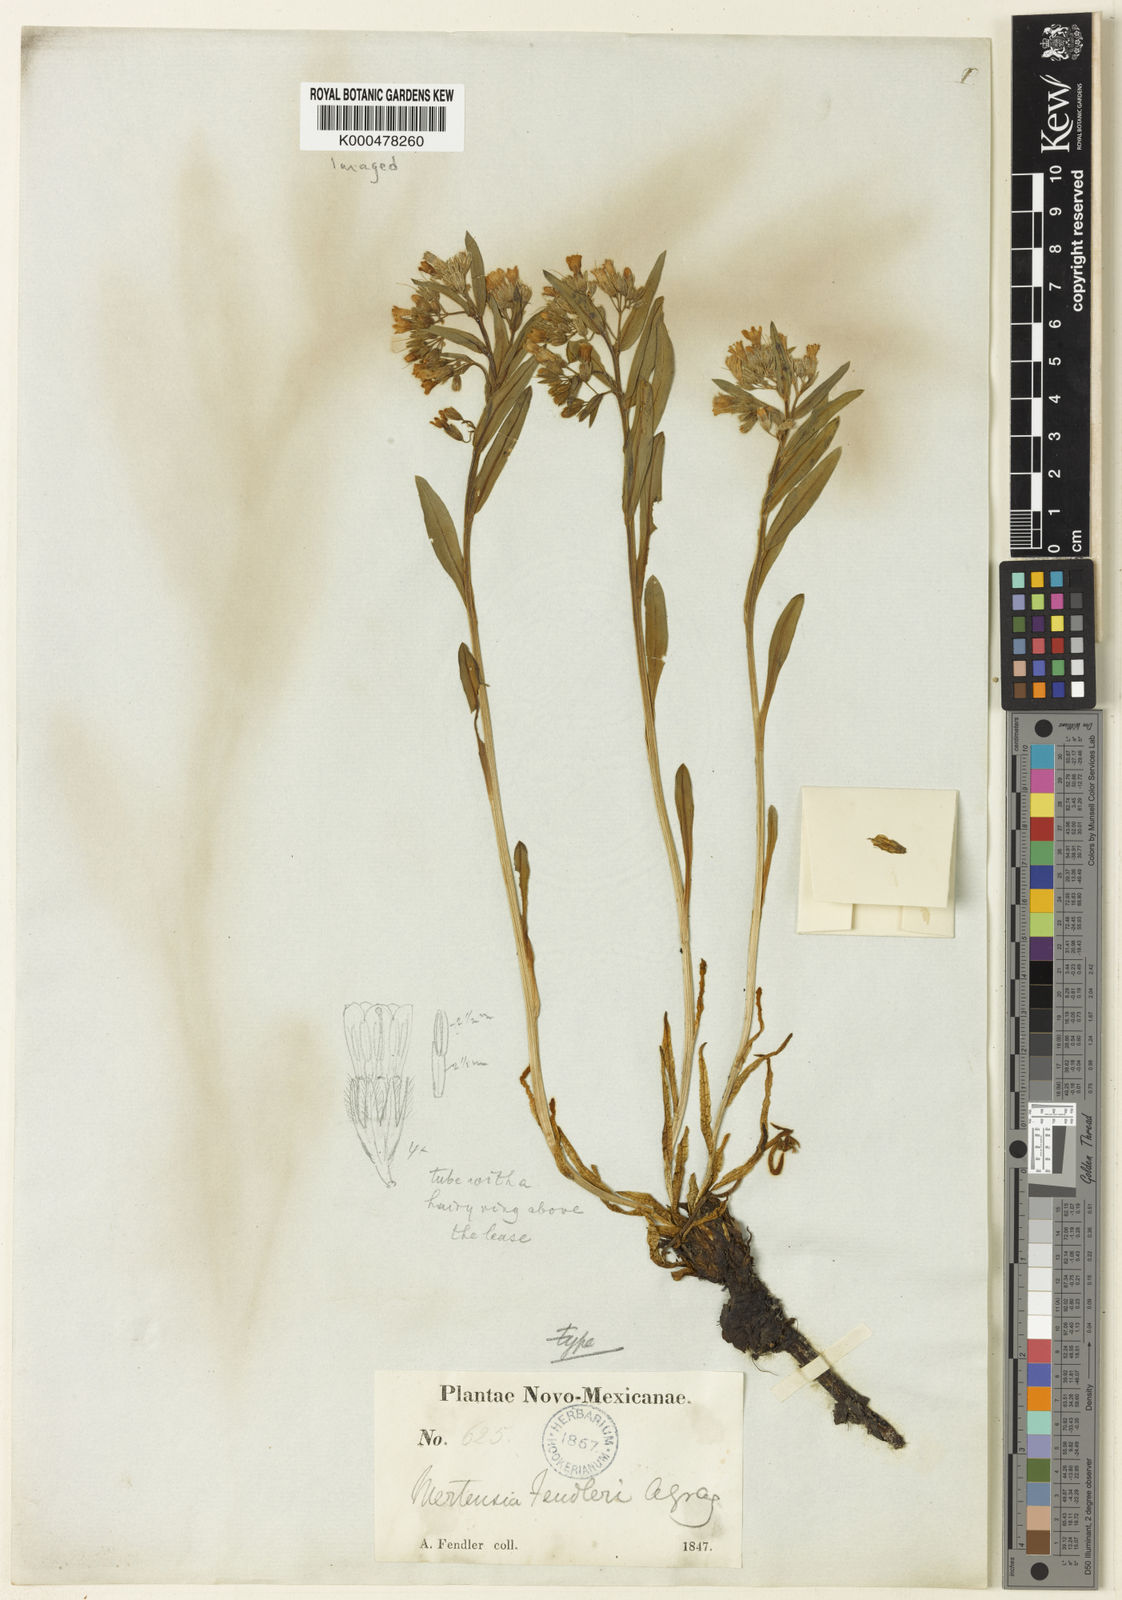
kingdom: Plantae
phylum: Tracheophyta
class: Magnoliopsida
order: Boraginales
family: Boraginaceae
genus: Mertensia
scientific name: Mertensia fendleri
